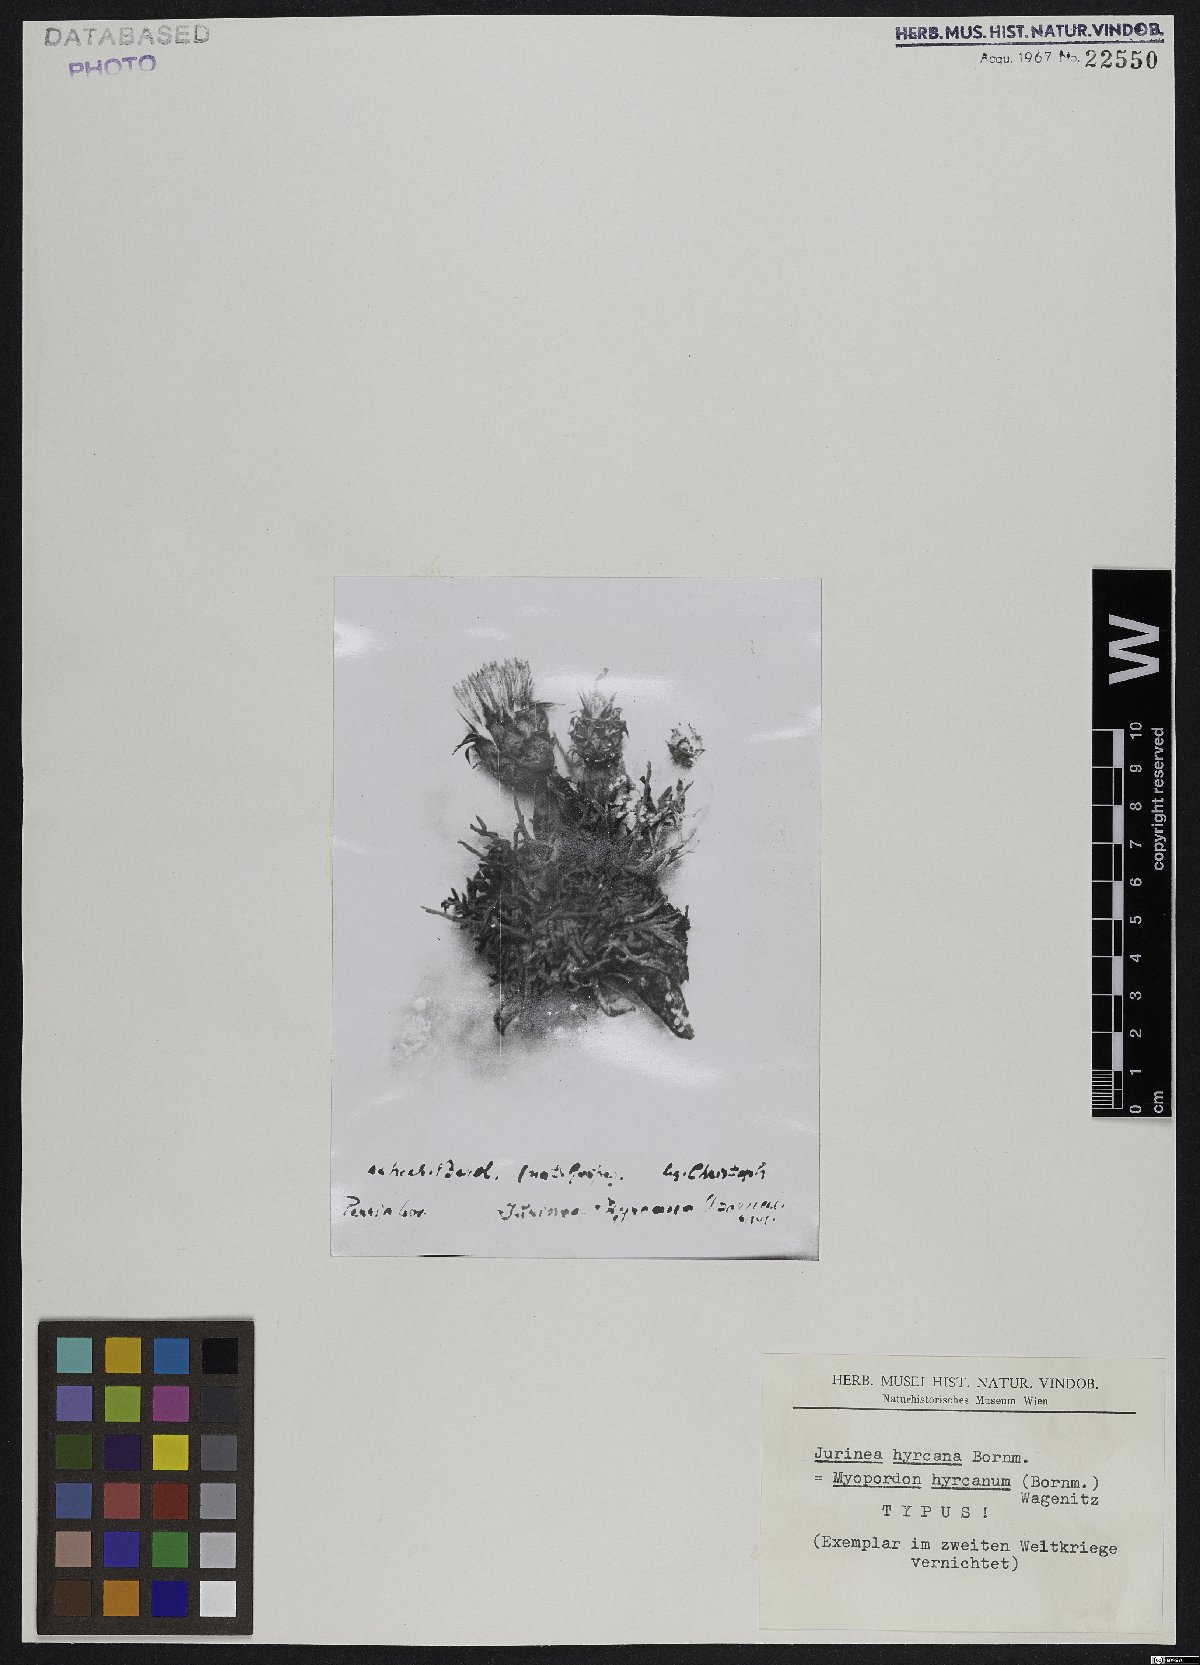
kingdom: Plantae
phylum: Tracheophyta
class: Magnoliopsida
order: Asterales
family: Asteraceae
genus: Myopordon
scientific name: Myopordon hyrcanum
